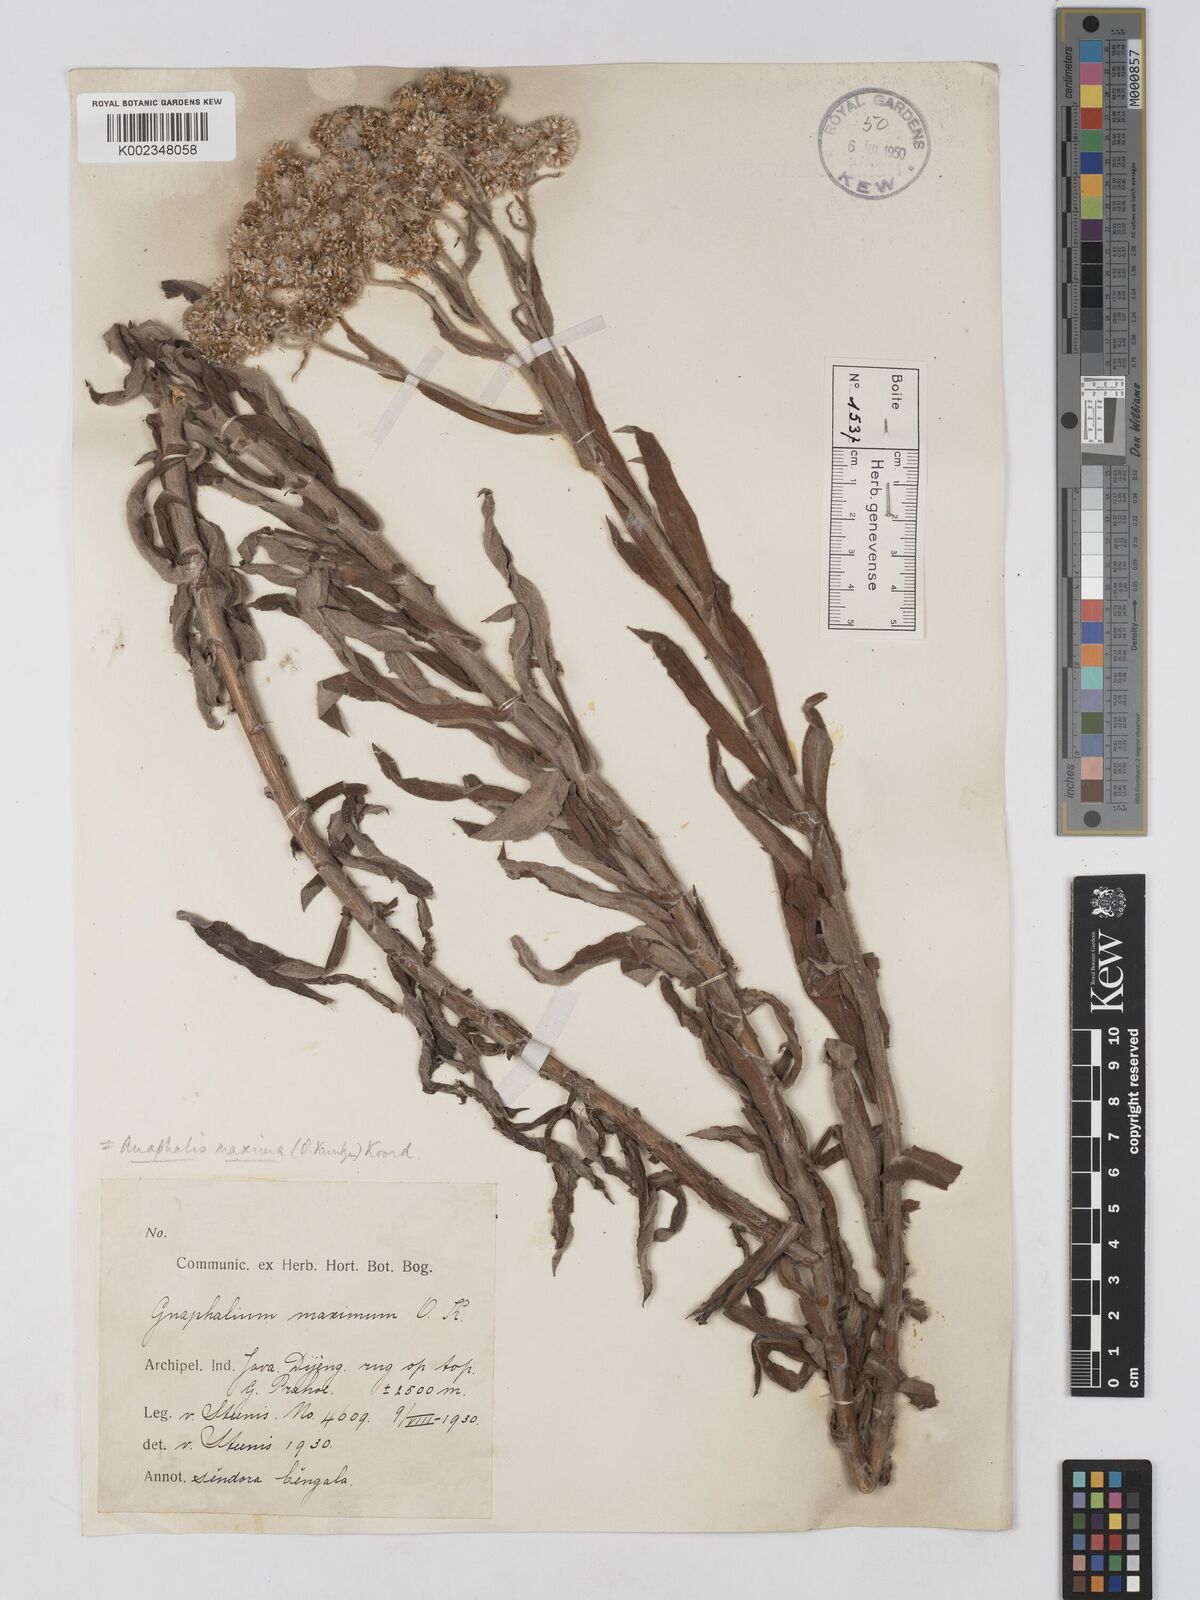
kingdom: Plantae
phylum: Tracheophyta
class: Magnoliopsida
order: Asterales
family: Asteraceae
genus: Anaphalis
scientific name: Anaphalis maxima
